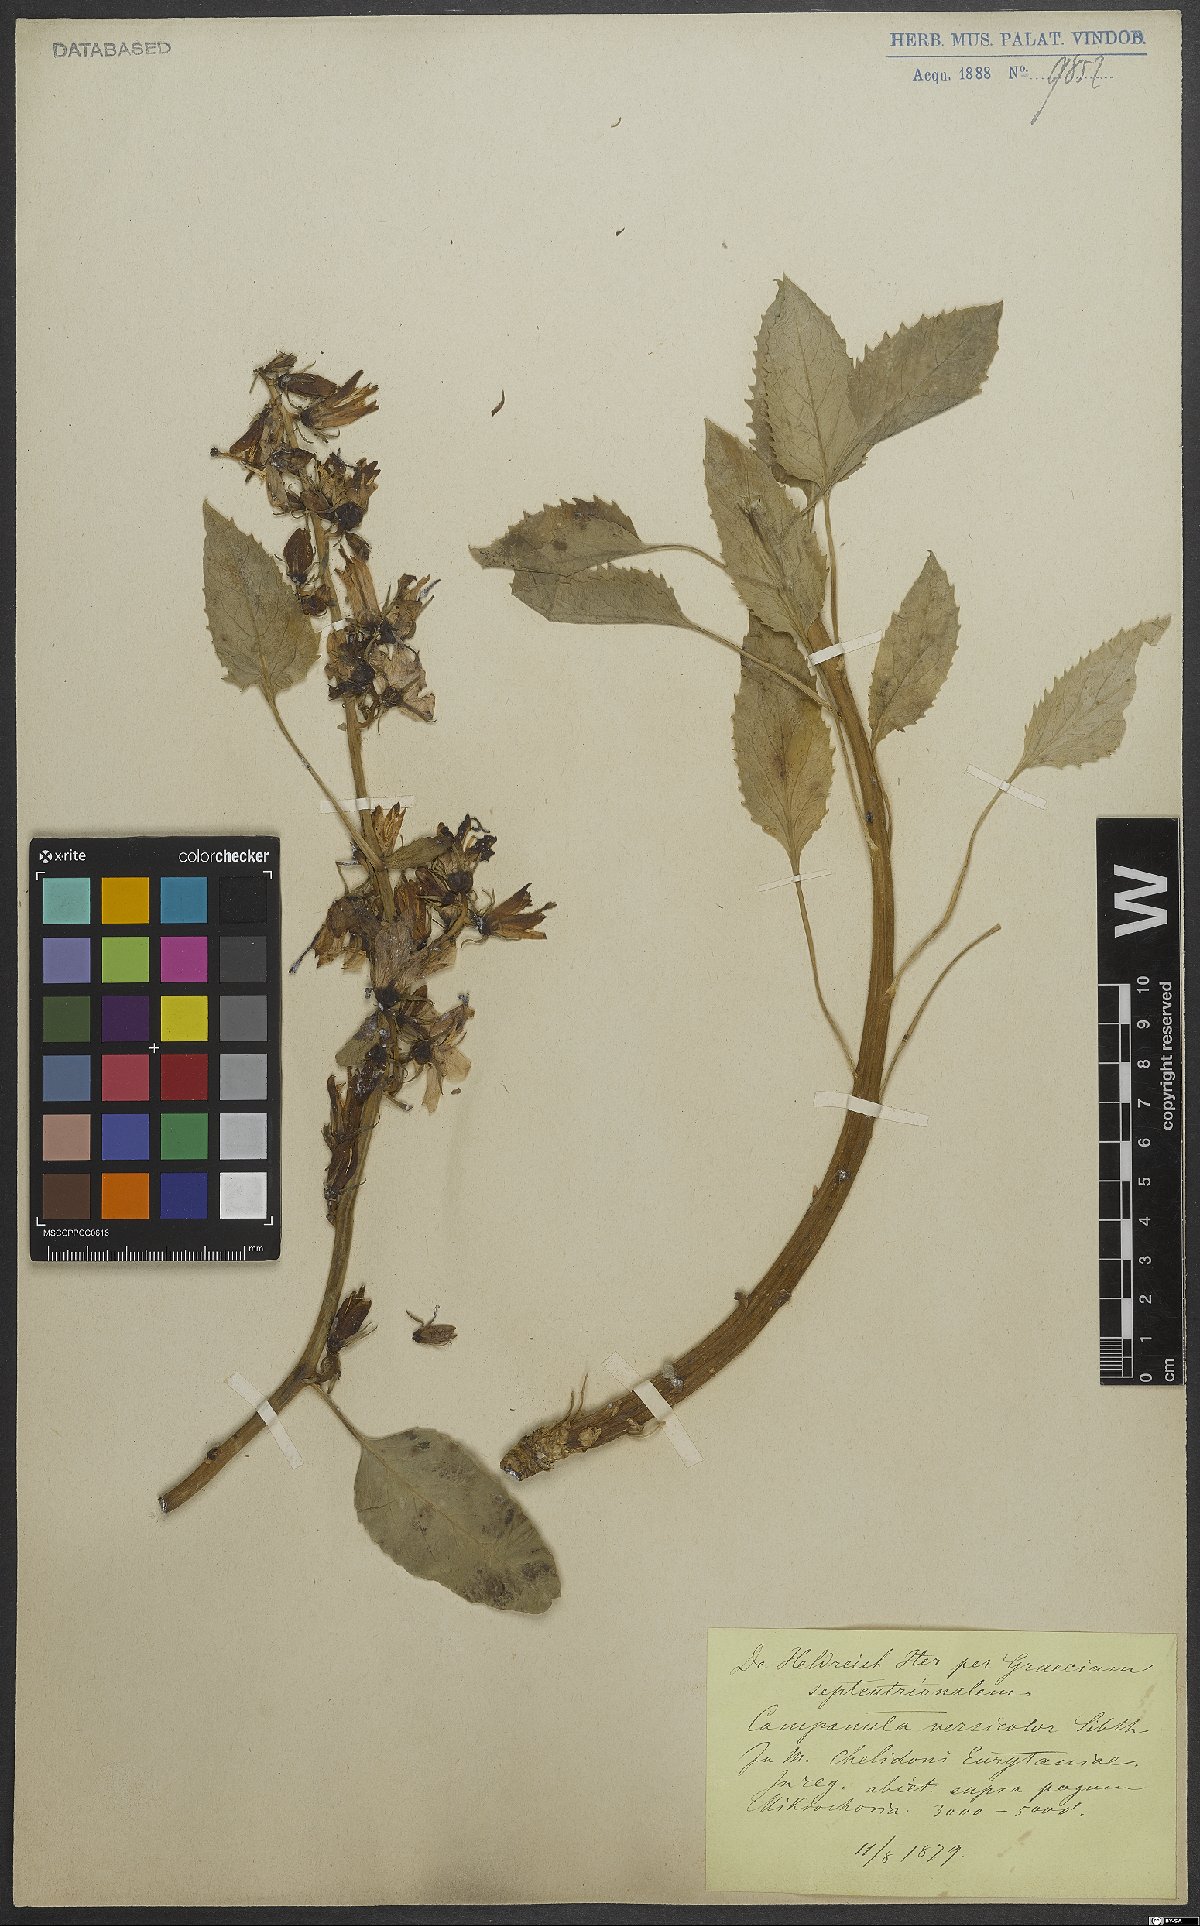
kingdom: Plantae
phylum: Tracheophyta
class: Magnoliopsida
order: Asterales
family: Campanulaceae
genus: Campanula
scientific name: Campanula versicolor
